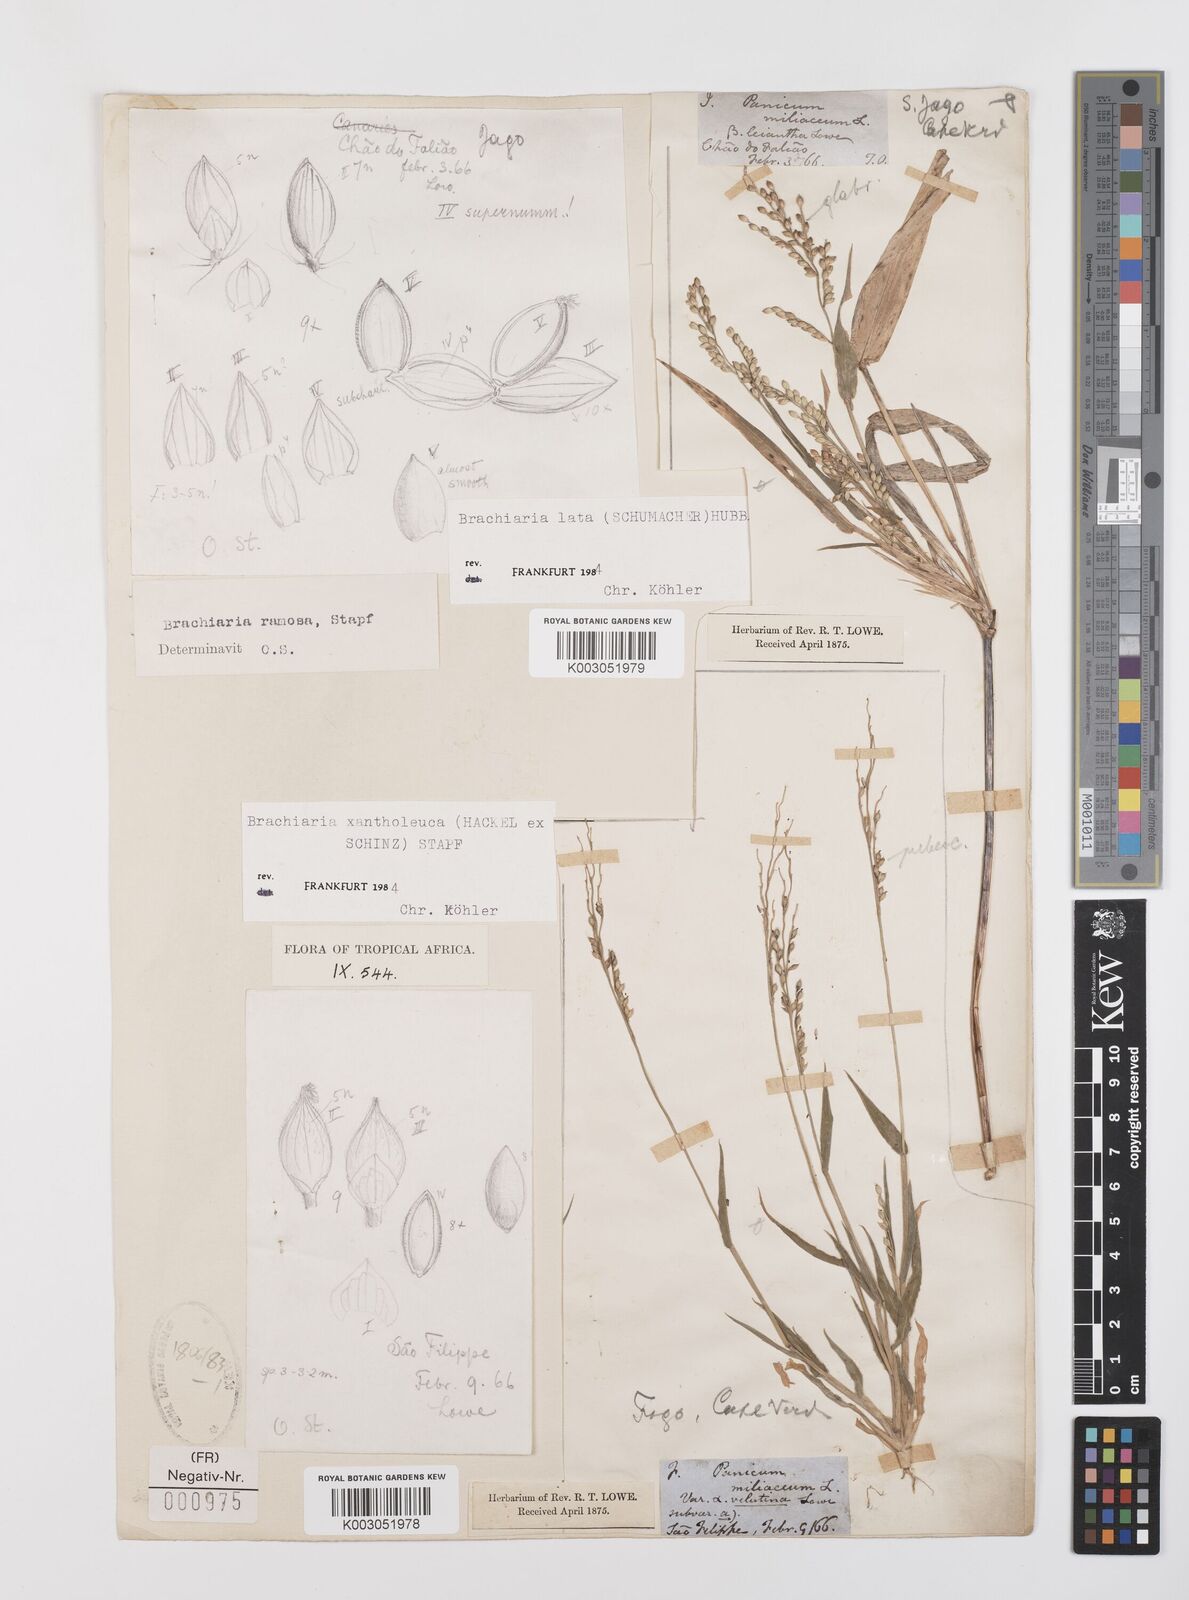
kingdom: Plantae
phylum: Tracheophyta
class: Liliopsida
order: Poales
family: Poaceae
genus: Urochloa
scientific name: Urochloa ramosa
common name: Browntop millet
